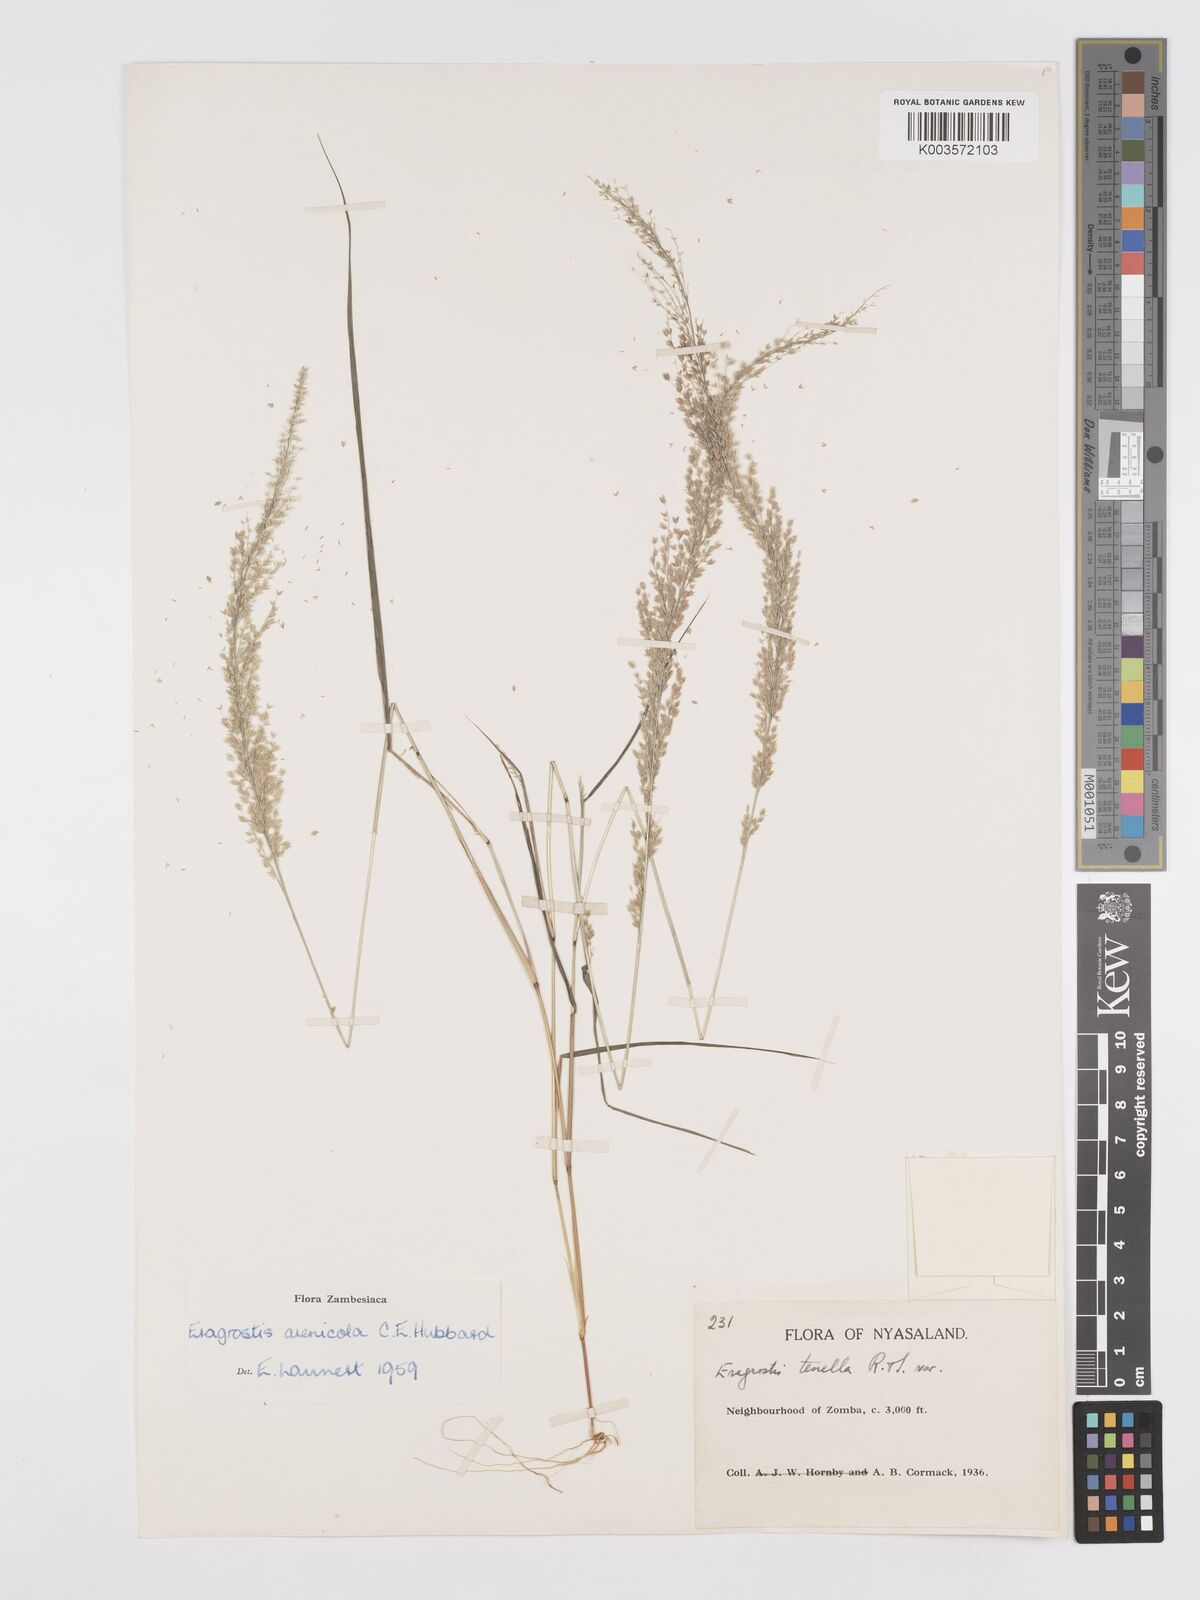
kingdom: Plantae
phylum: Tracheophyta
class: Liliopsida
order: Poales
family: Poaceae
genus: Eragrostis
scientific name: Eragrostis arenicola
